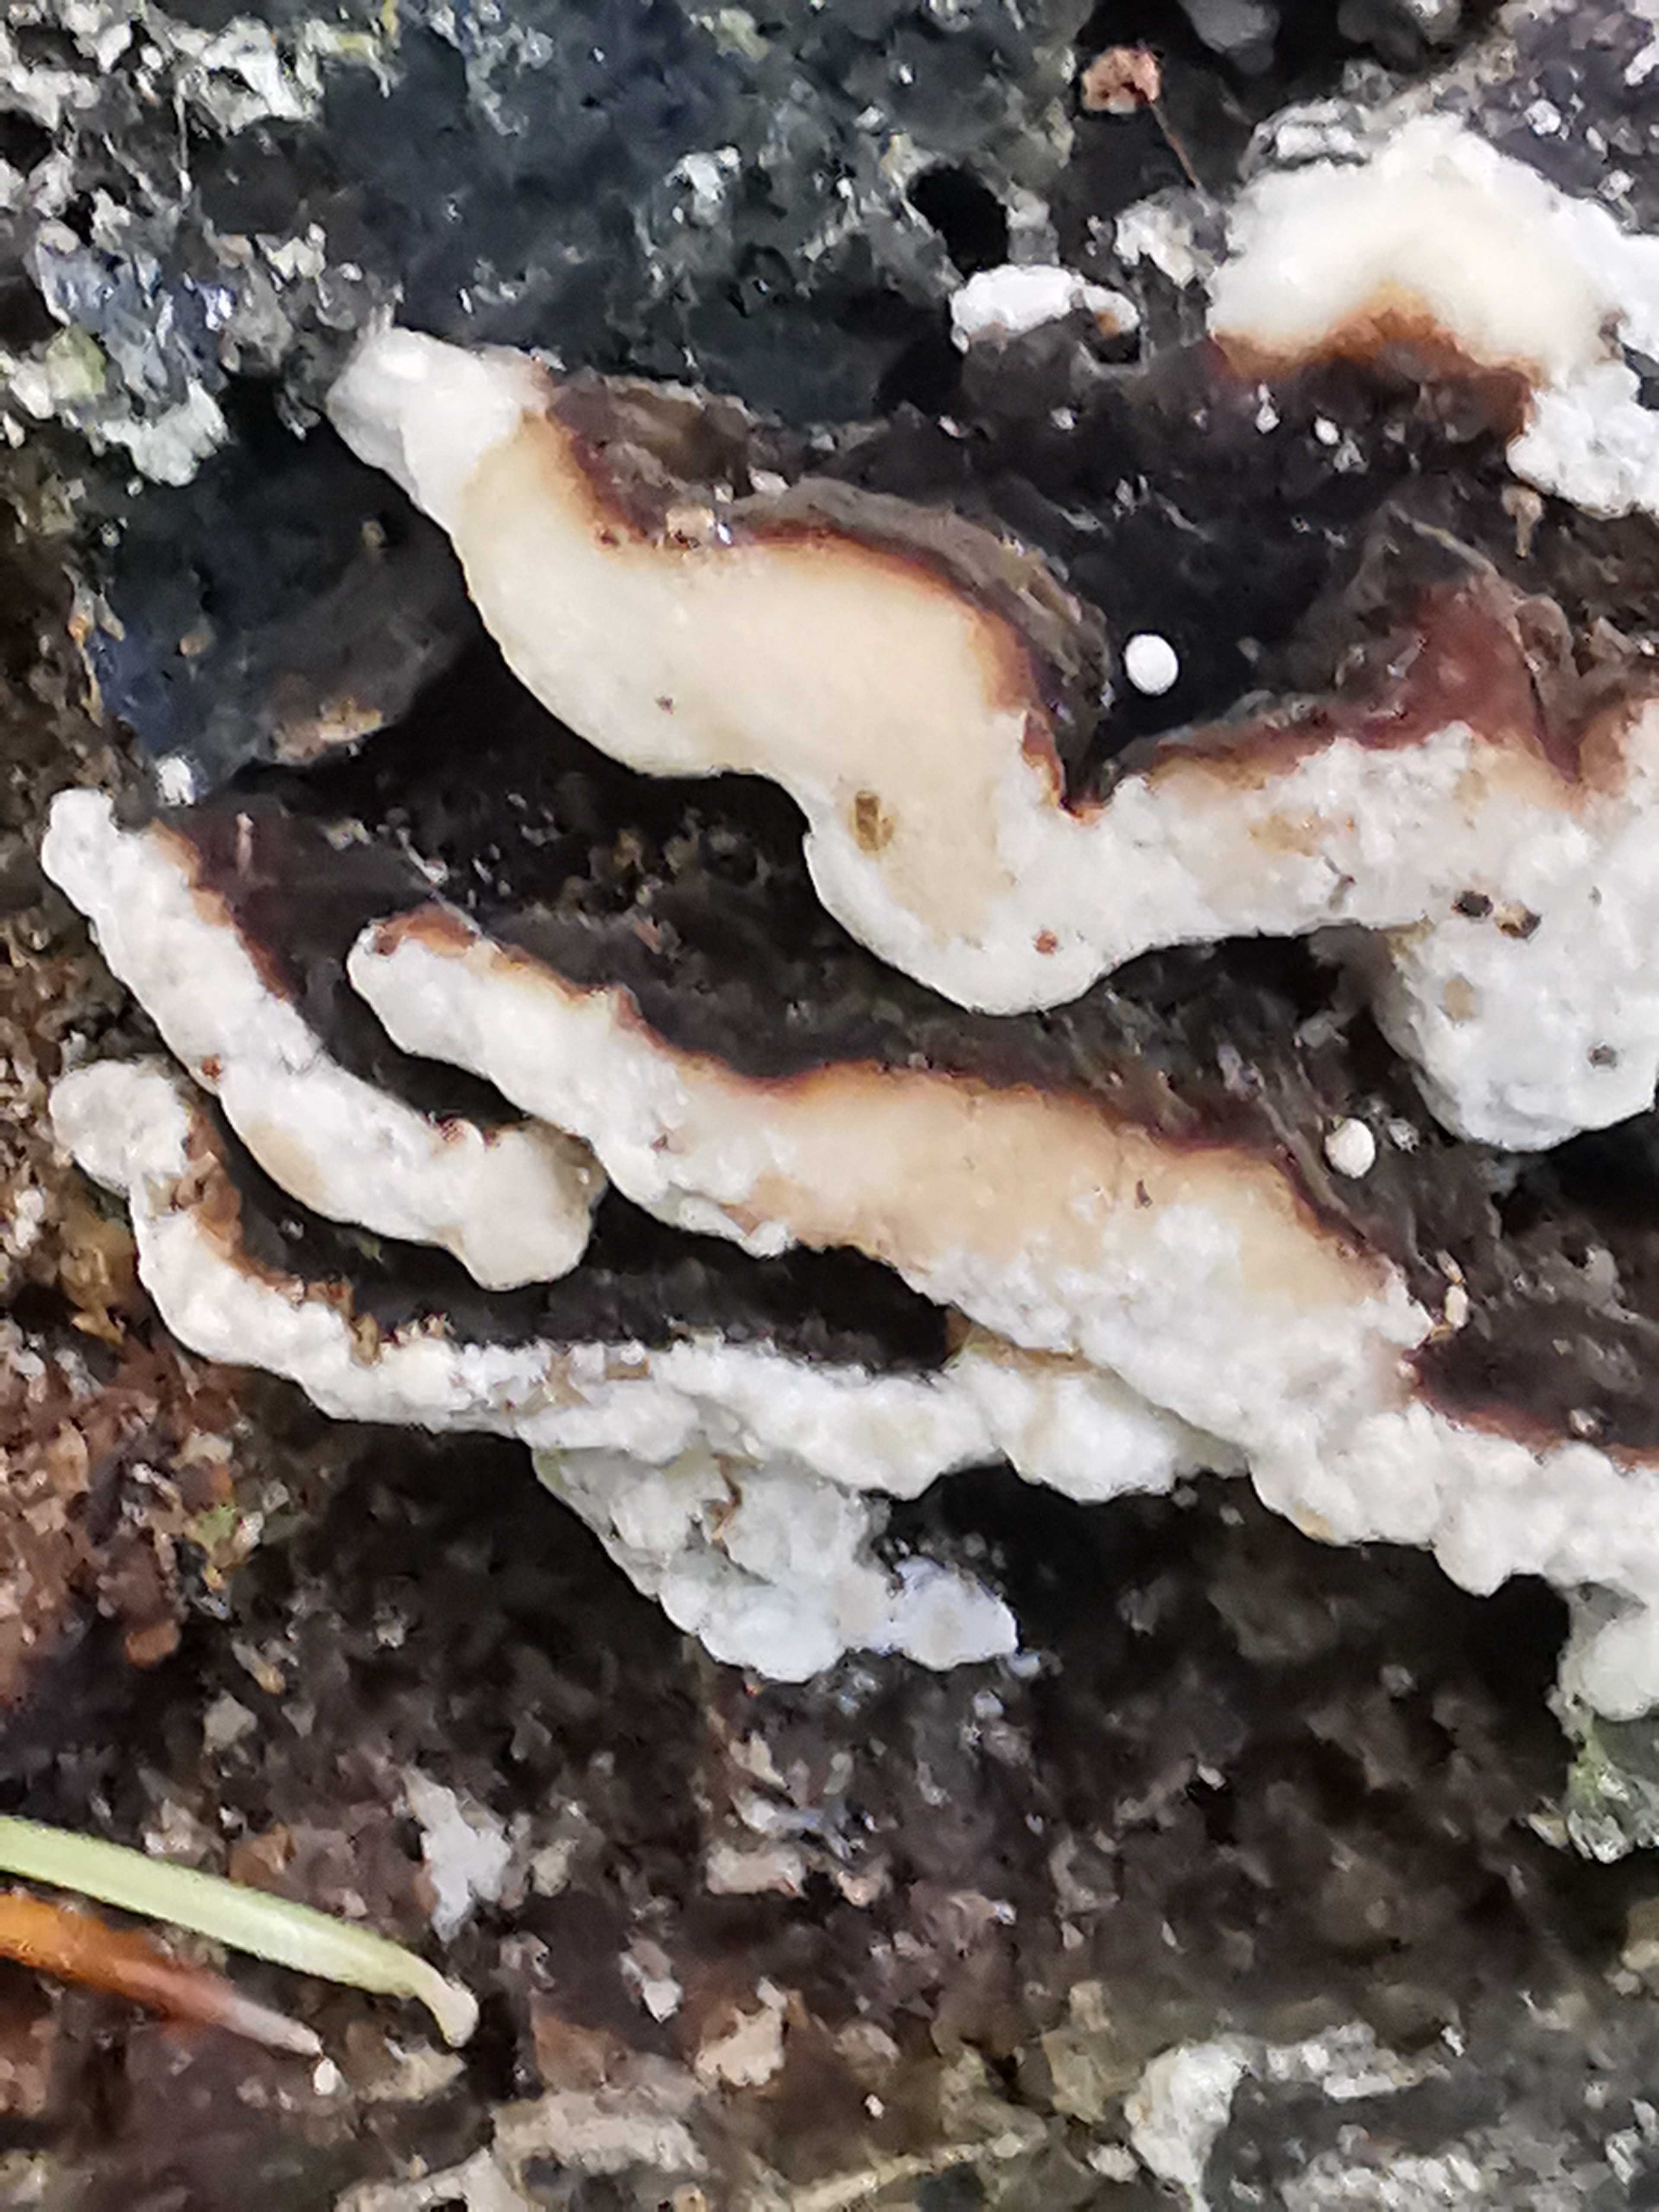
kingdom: Fungi
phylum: Basidiomycota
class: Agaricomycetes
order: Polyporales
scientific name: Polyporales
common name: poresvampordenen
